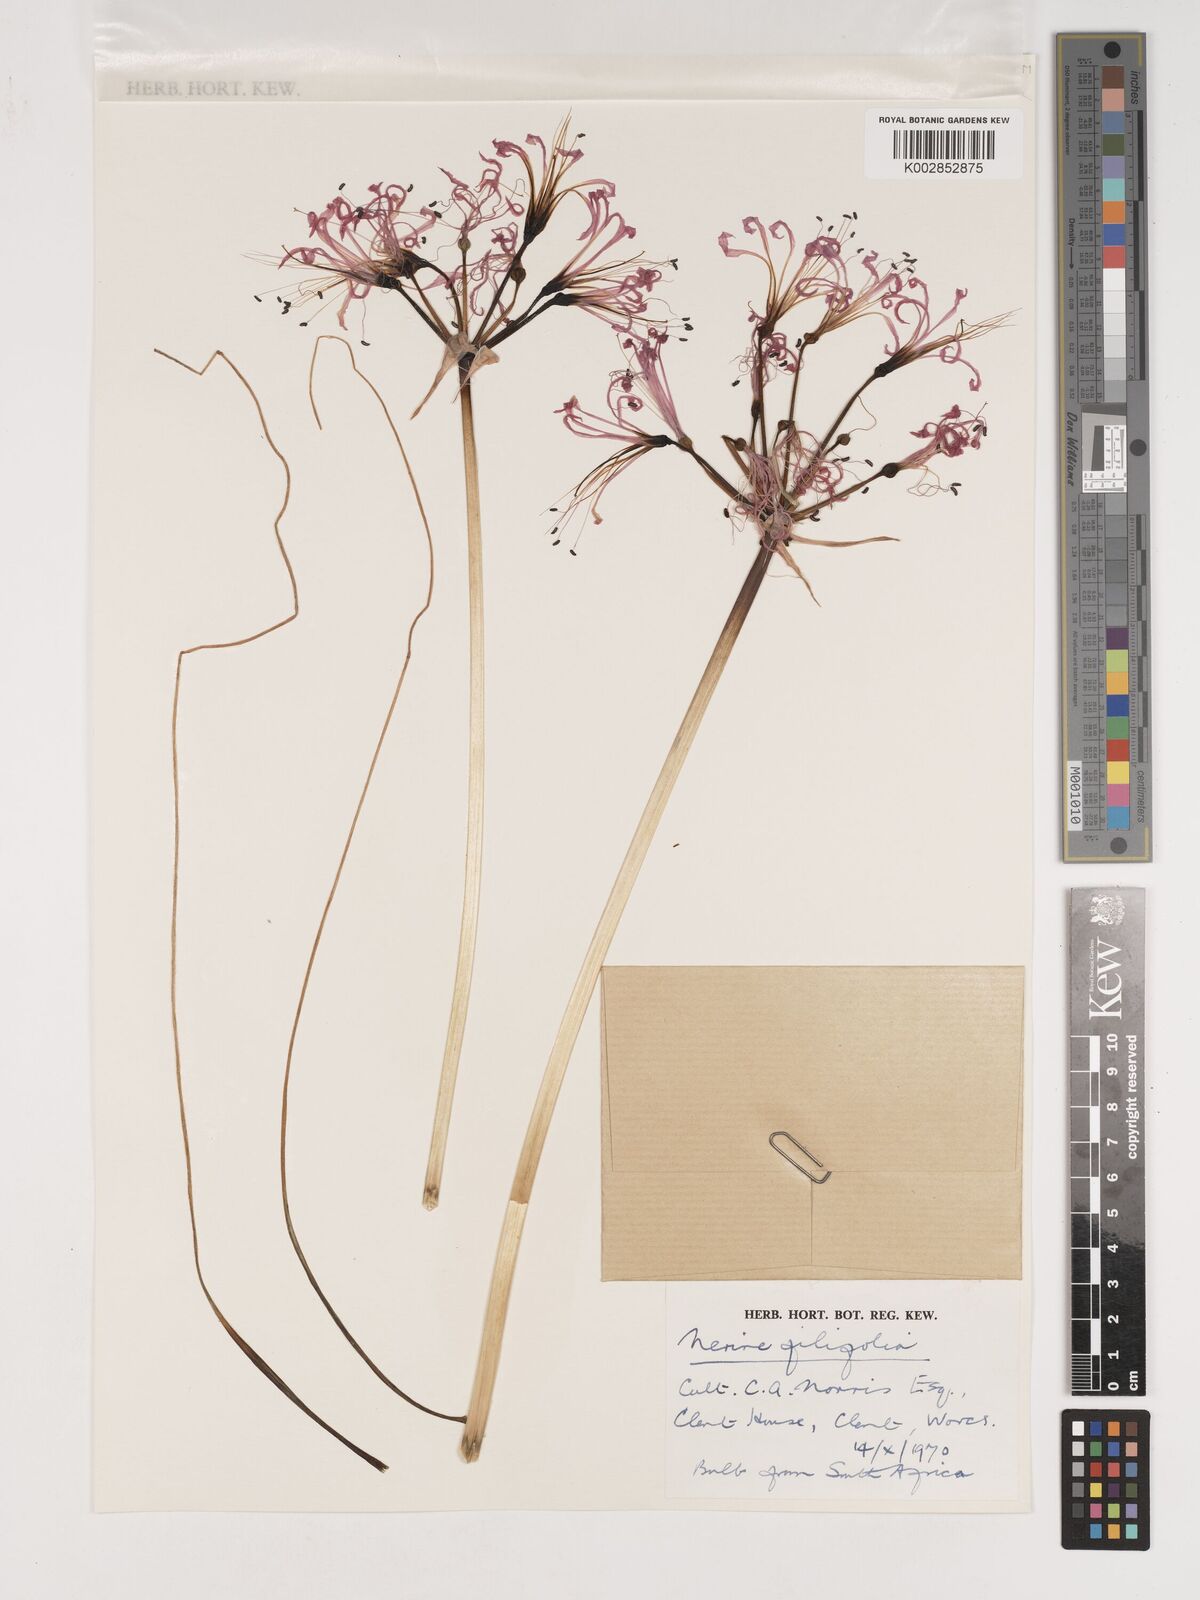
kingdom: Plantae
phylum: Tracheophyta
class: Liliopsida
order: Asparagales
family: Amaryllidaceae
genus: Nerine
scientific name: Nerine filifolia
